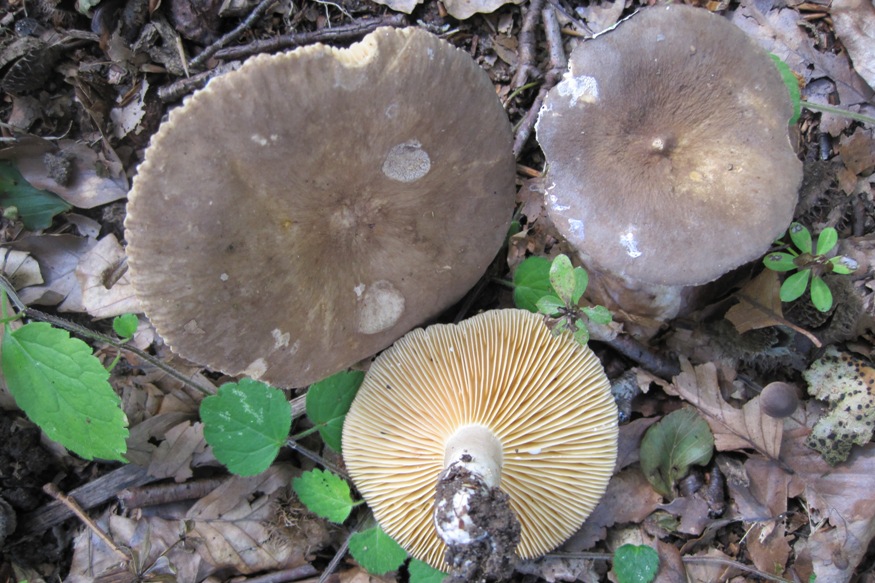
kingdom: Fungi
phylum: Basidiomycota
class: Agaricomycetes
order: Russulales
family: Russulaceae
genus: Lactarius
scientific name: Lactarius romagnesii
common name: fjernbladet mælkehat
